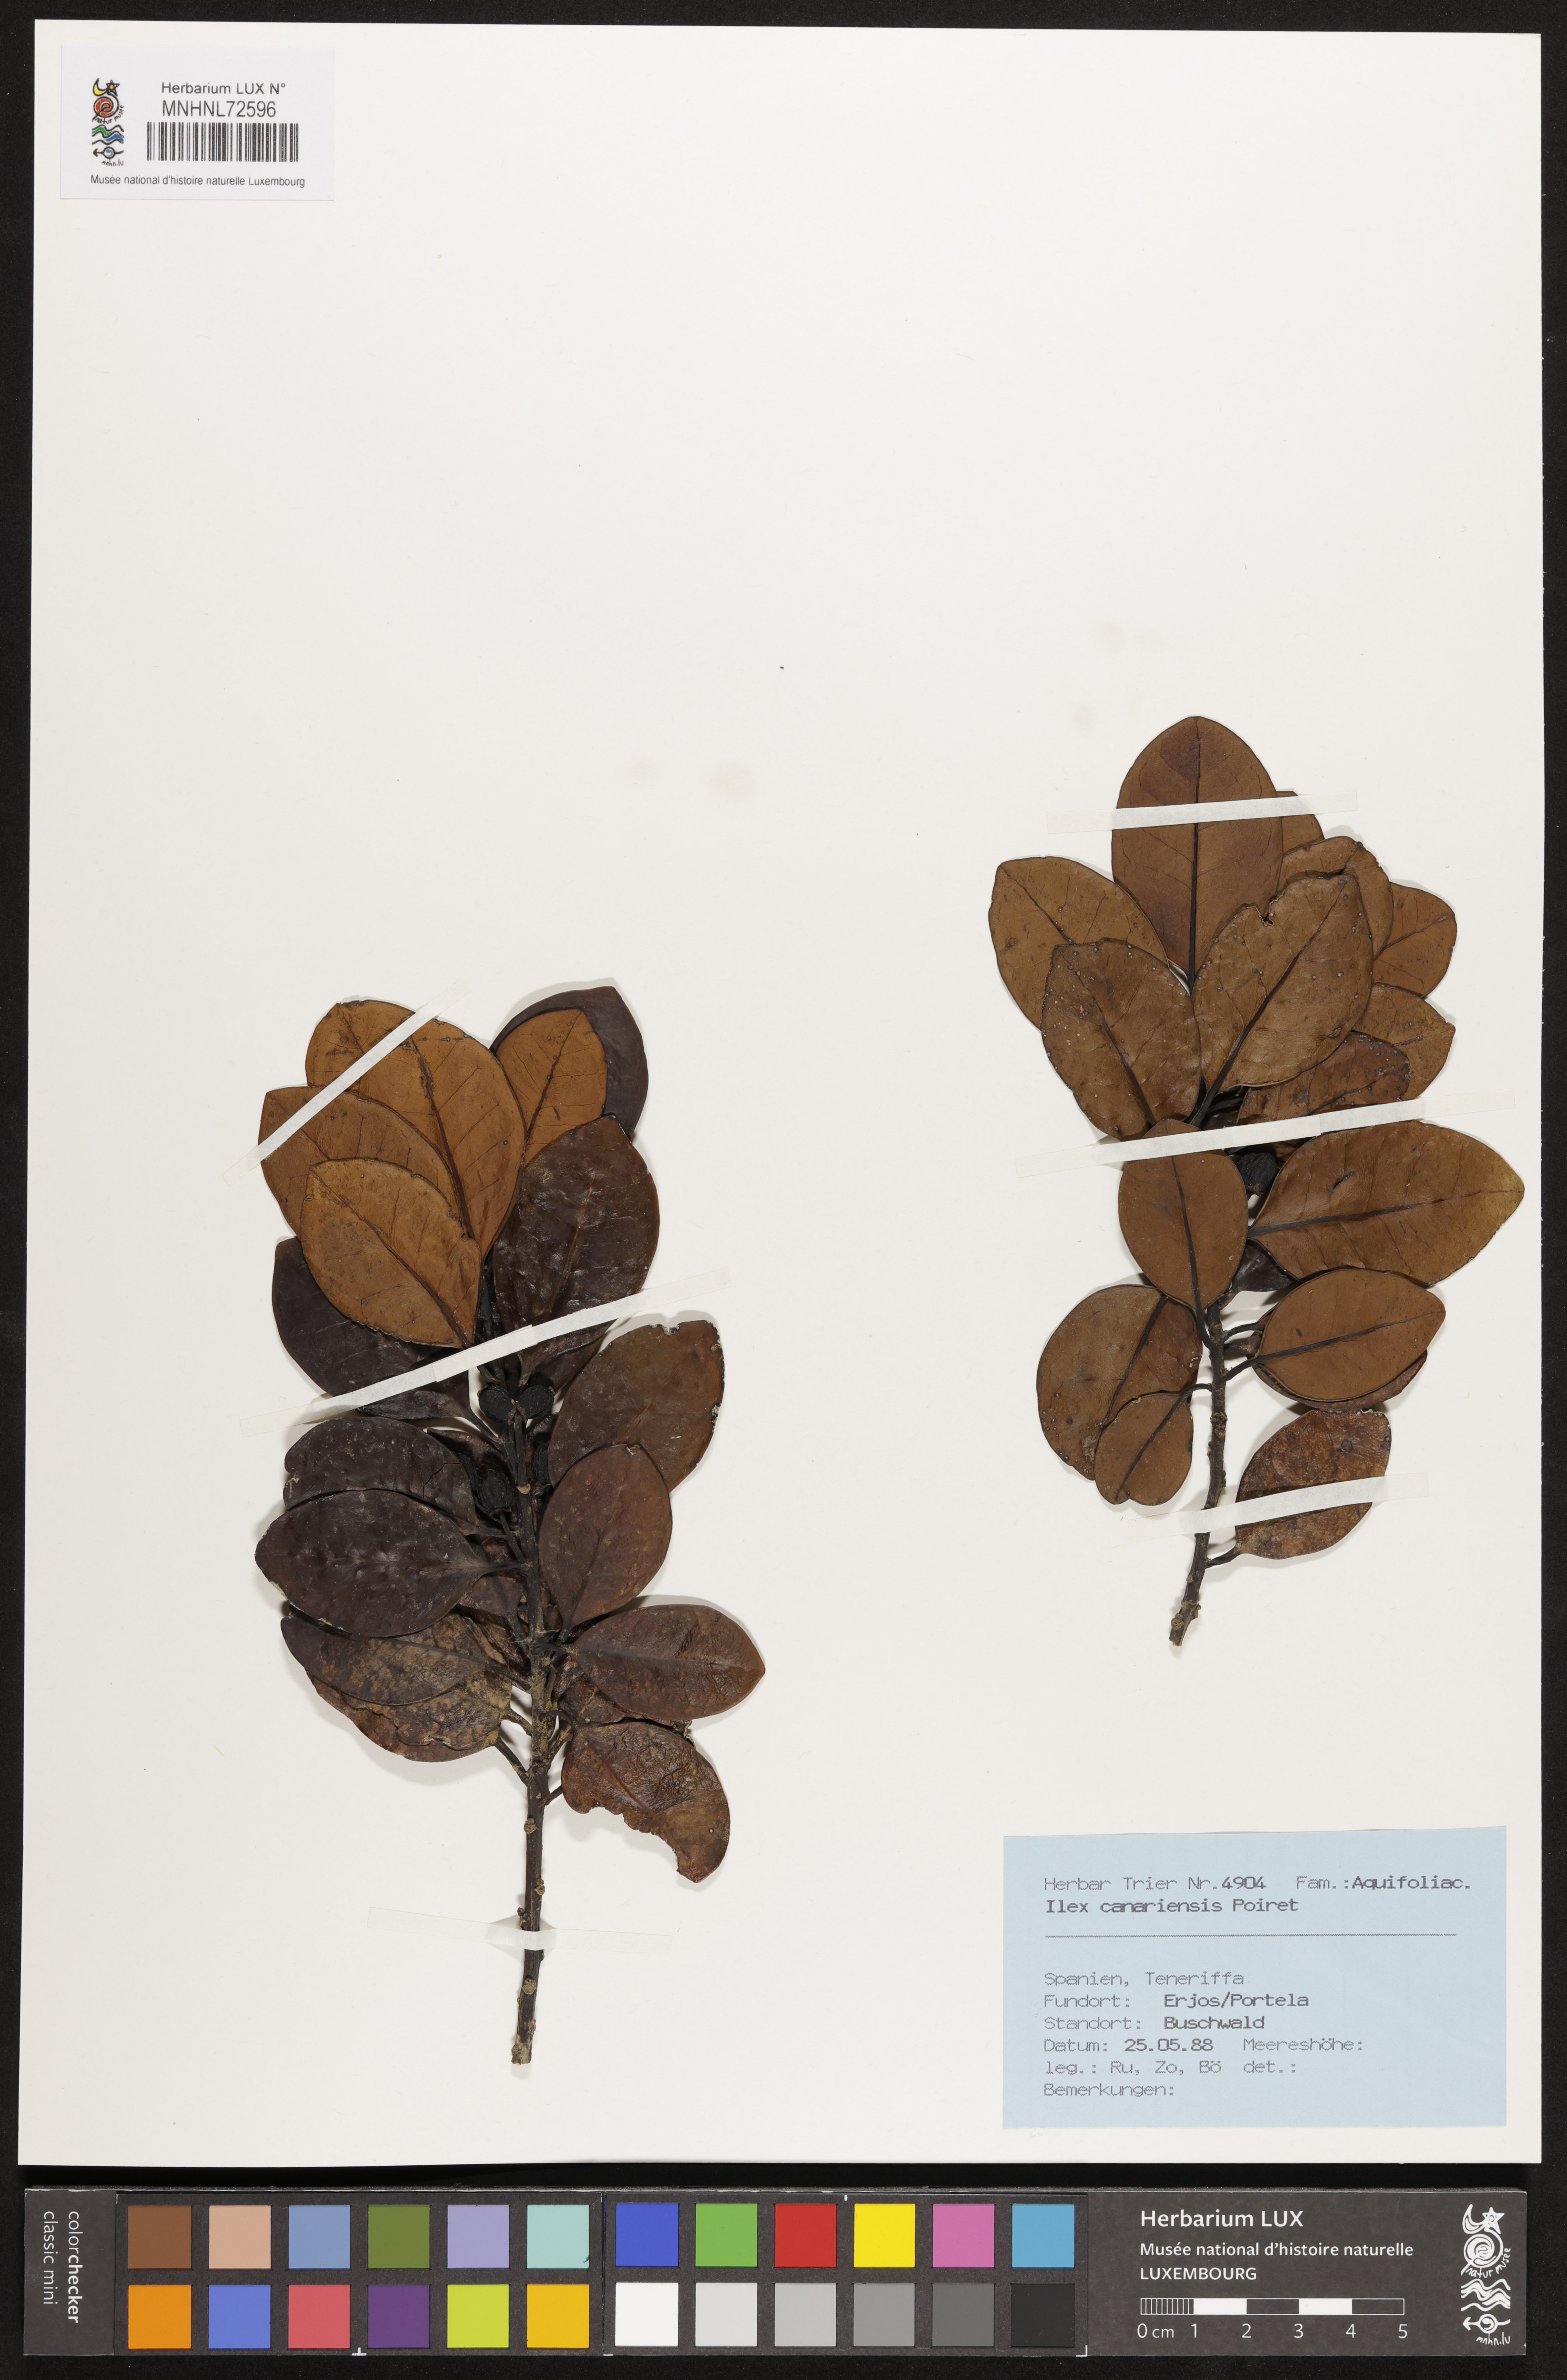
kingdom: Plantae
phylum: Tracheophyta
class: Magnoliopsida
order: Aquifoliales
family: Aquifoliaceae
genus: Ilex
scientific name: Ilex canariensis
